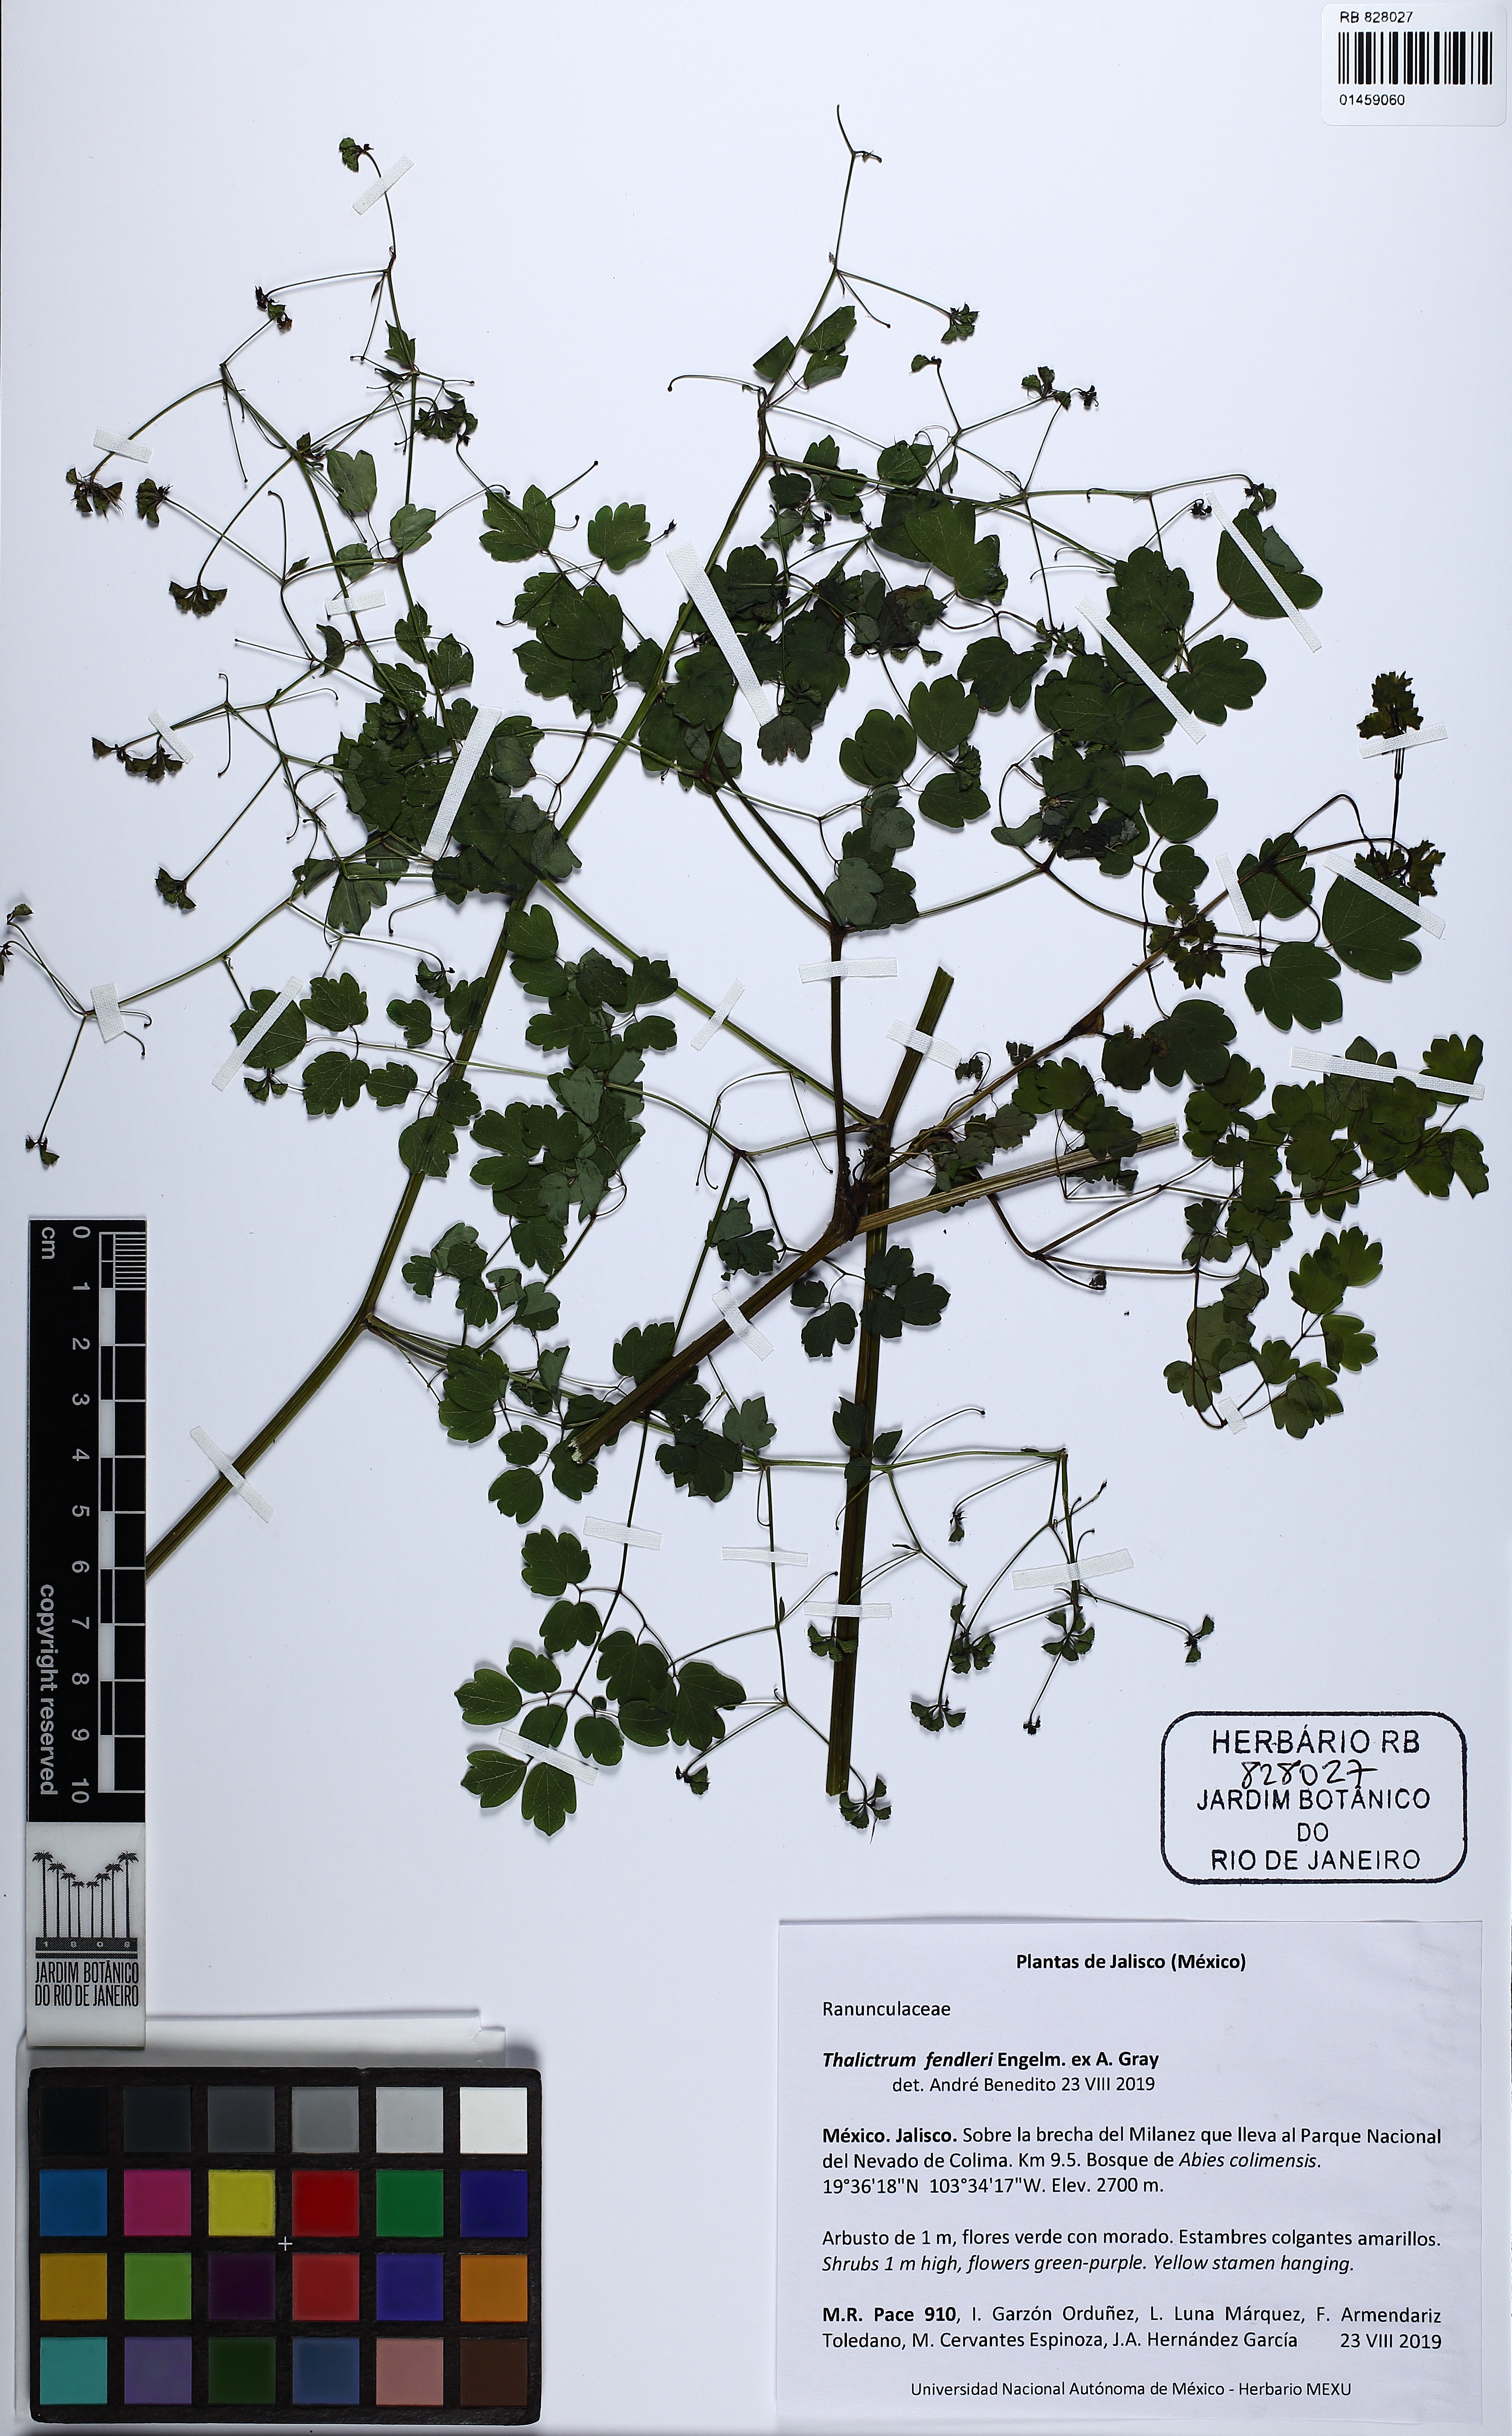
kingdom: Plantae
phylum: Tracheophyta
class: Magnoliopsida
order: Ranunculales
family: Ranunculaceae
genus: Thalictrum
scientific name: Thalictrum fendleri
